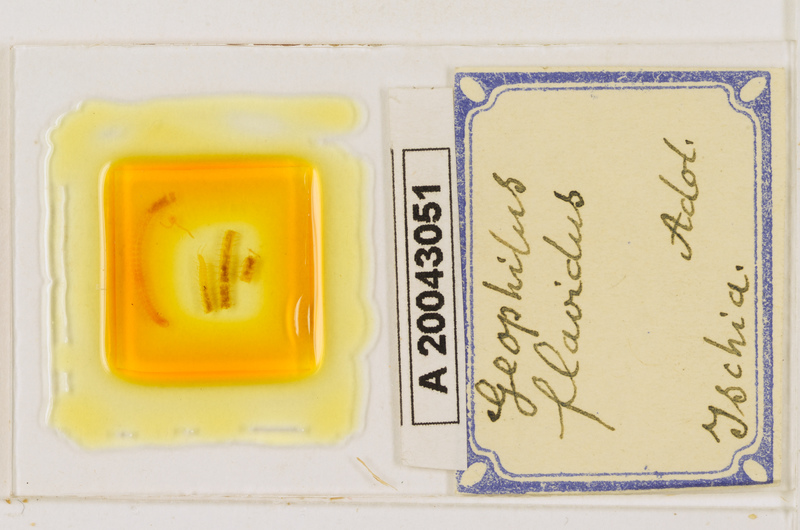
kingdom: Animalia
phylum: Arthropoda
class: Chilopoda
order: Geophilomorpha
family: Geophilidae
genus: Clinopodes
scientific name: Clinopodes flavidus
